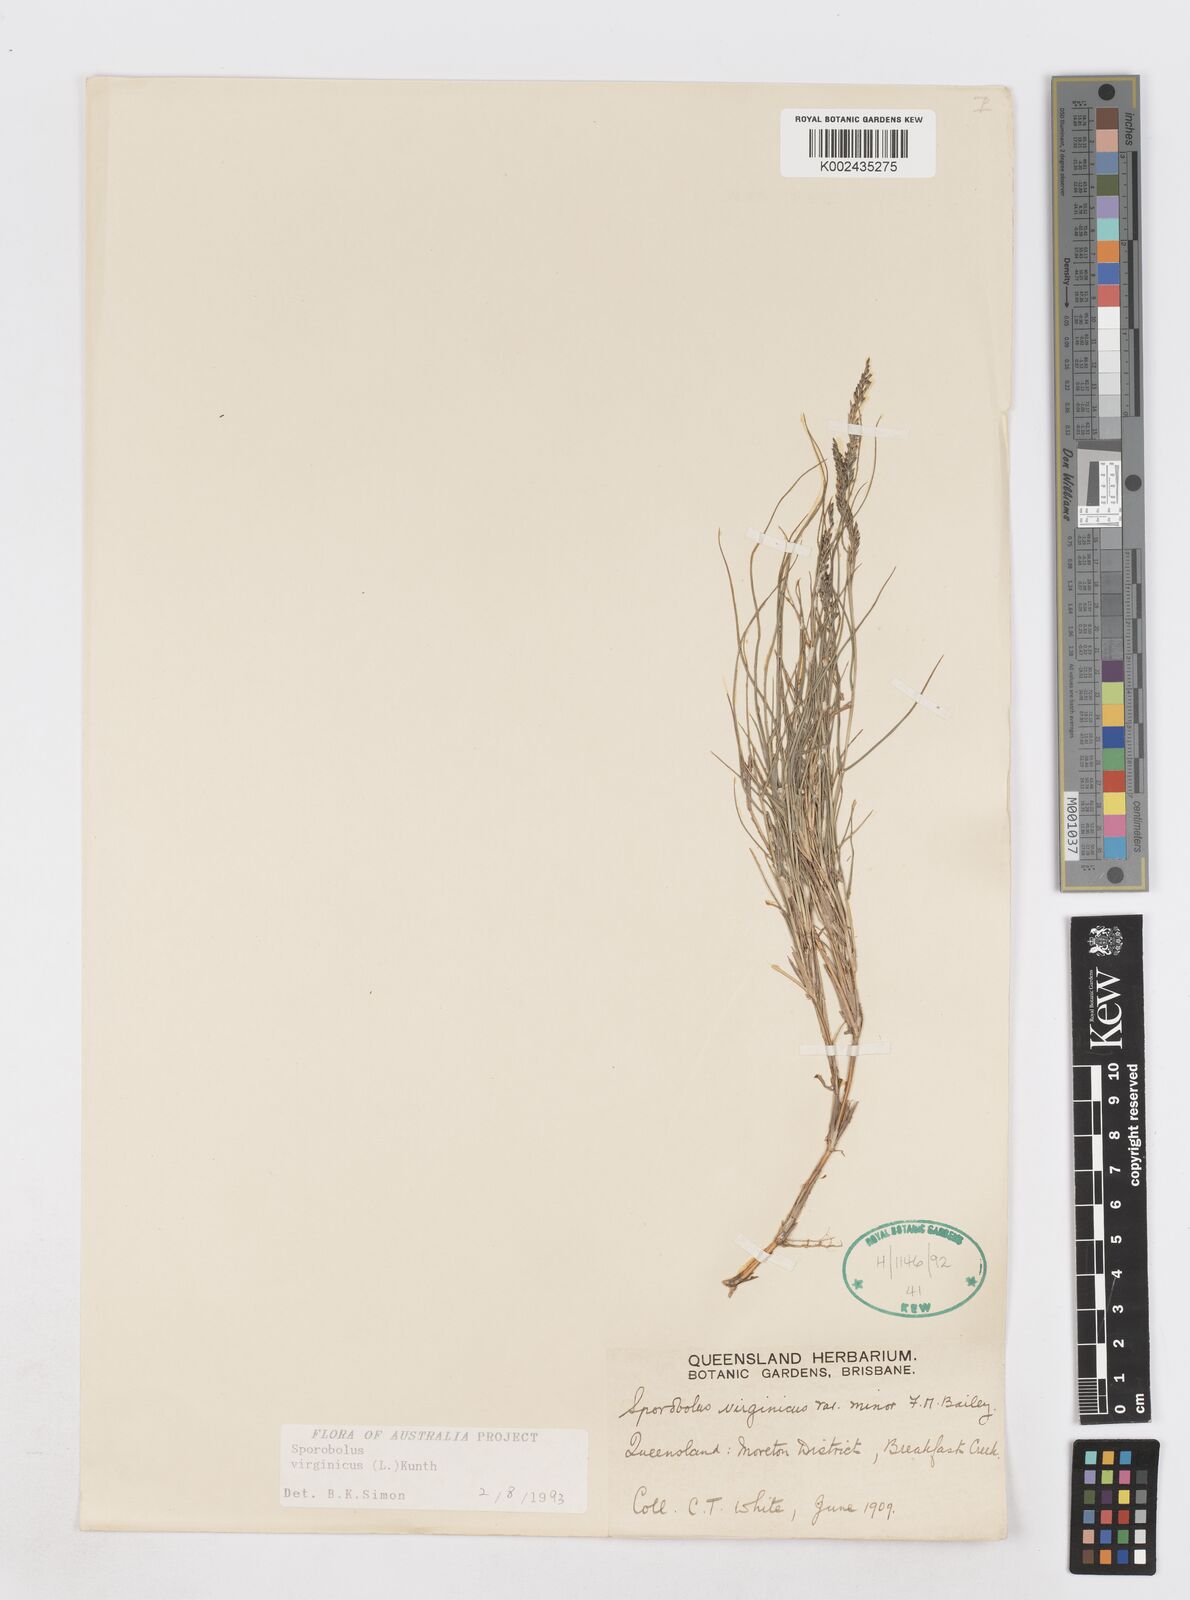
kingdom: Plantae
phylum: Tracheophyta
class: Liliopsida
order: Poales
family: Poaceae
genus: Sporobolus
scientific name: Sporobolus virginicus
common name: Beach dropseed
